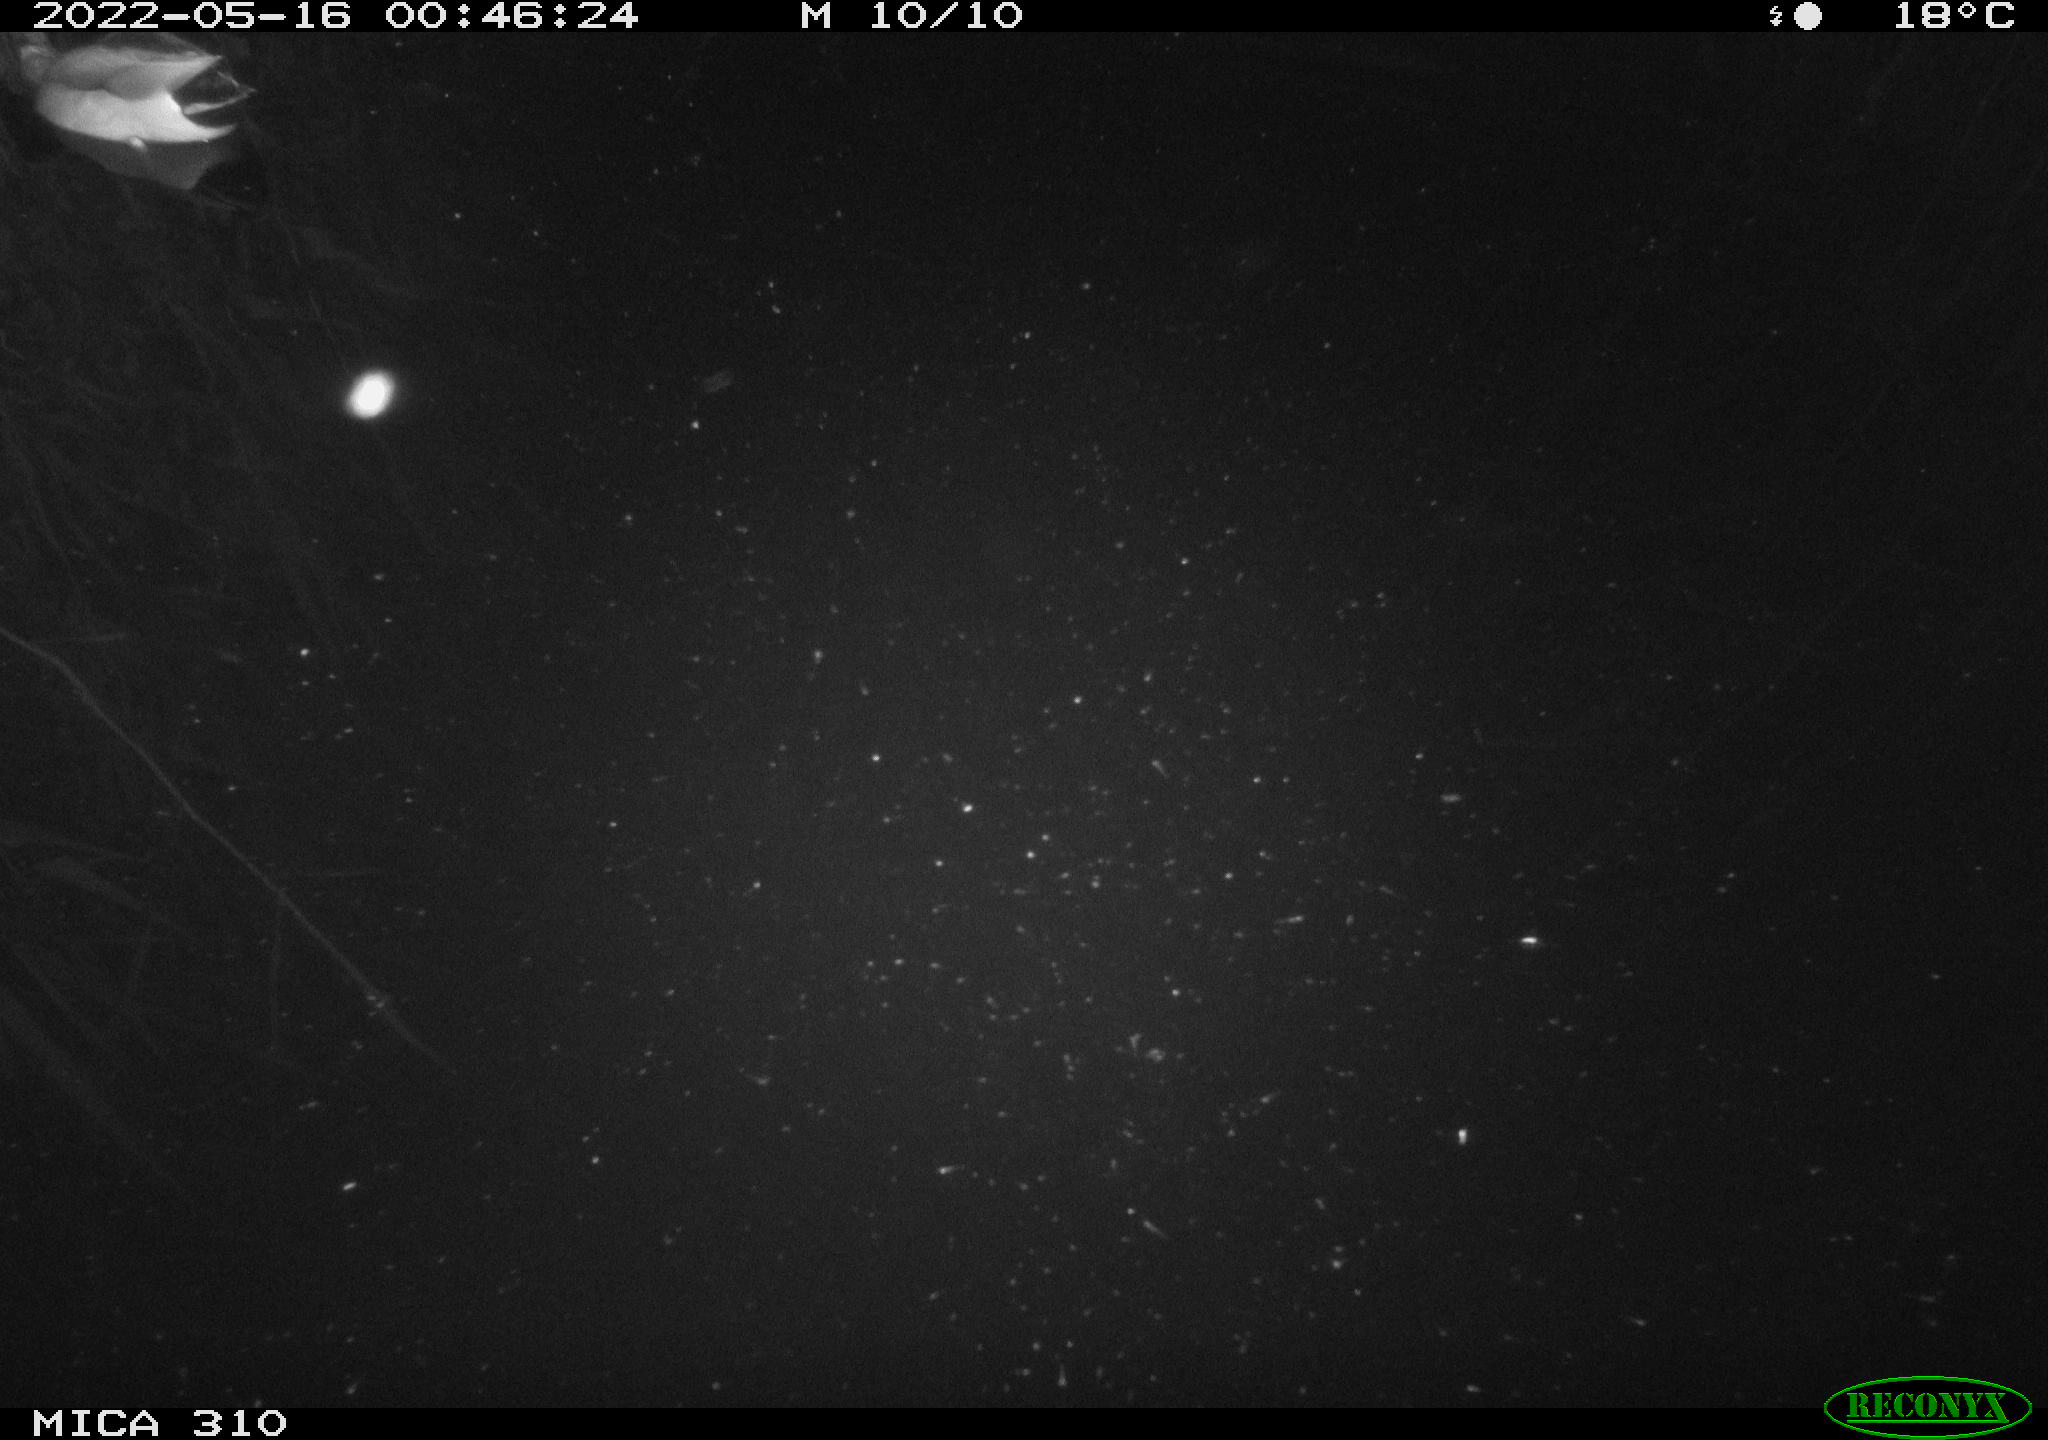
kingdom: Animalia
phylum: Chordata
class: Aves
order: Anseriformes
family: Anatidae
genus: Anas
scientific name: Anas platyrhynchos
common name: Mallard
